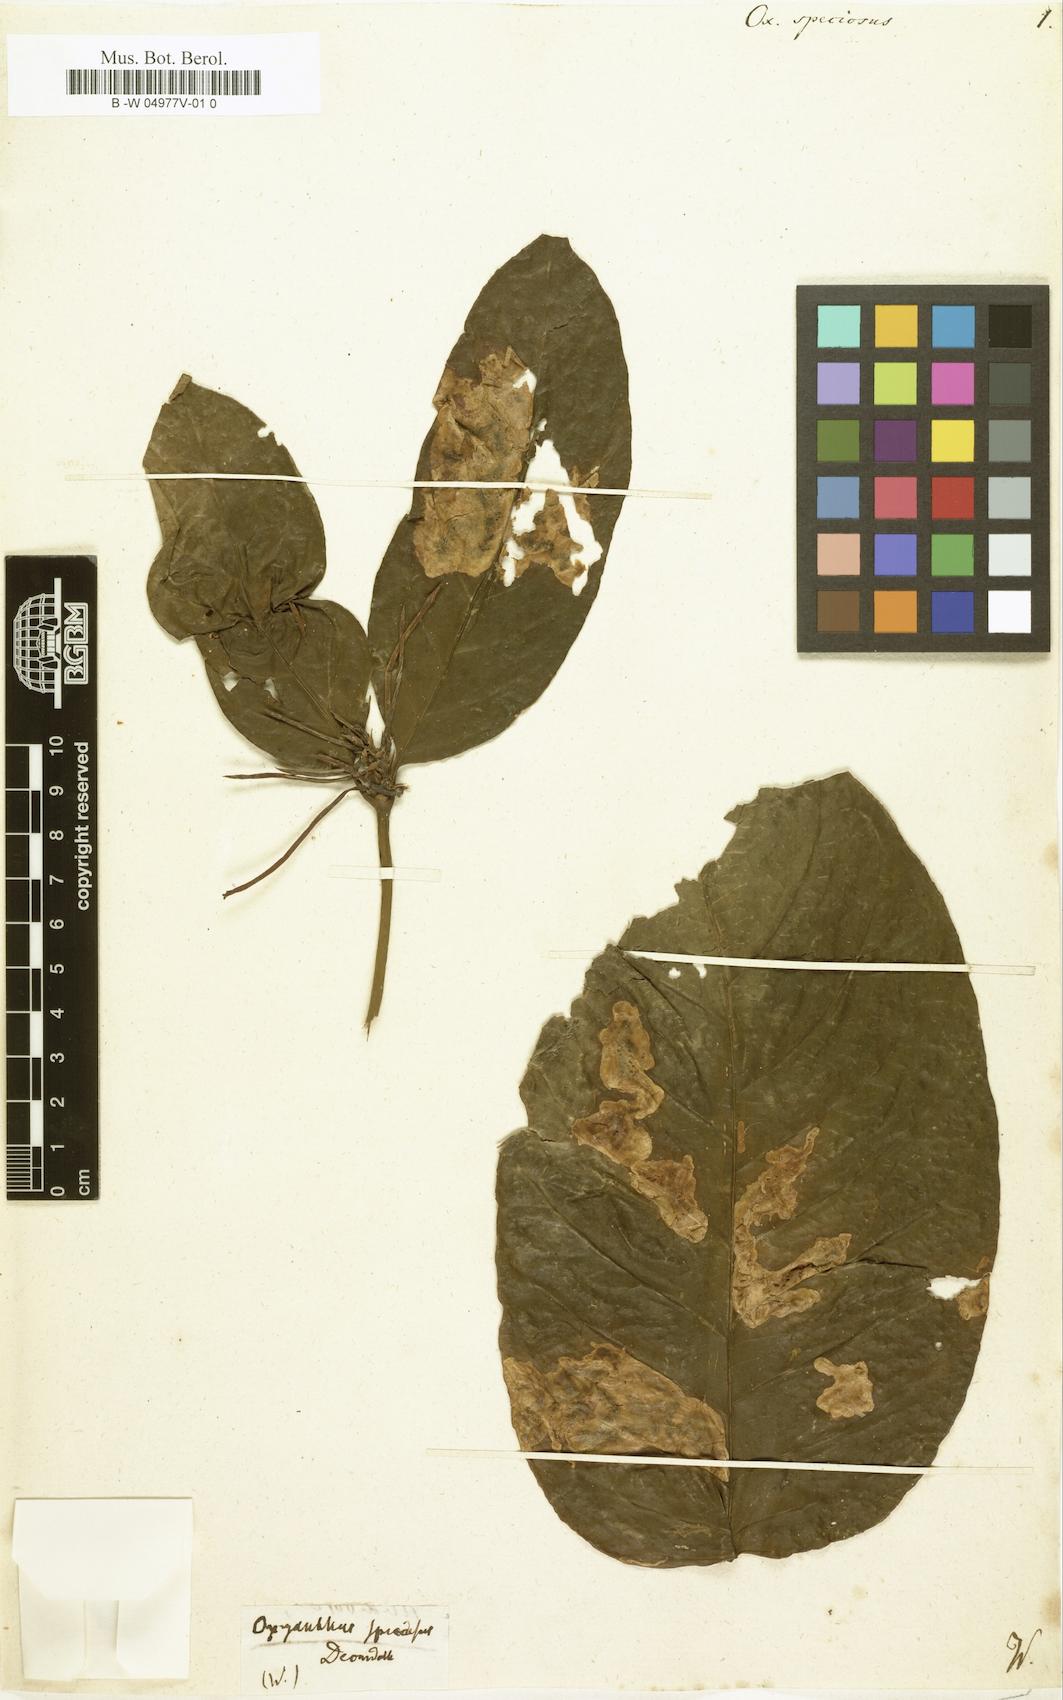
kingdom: Plantae
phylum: Tracheophyta
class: Magnoliopsida
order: Gentianales
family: Rubiaceae
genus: Oxyanthus
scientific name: Oxyanthus speciosus
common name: Whipstick loquat
